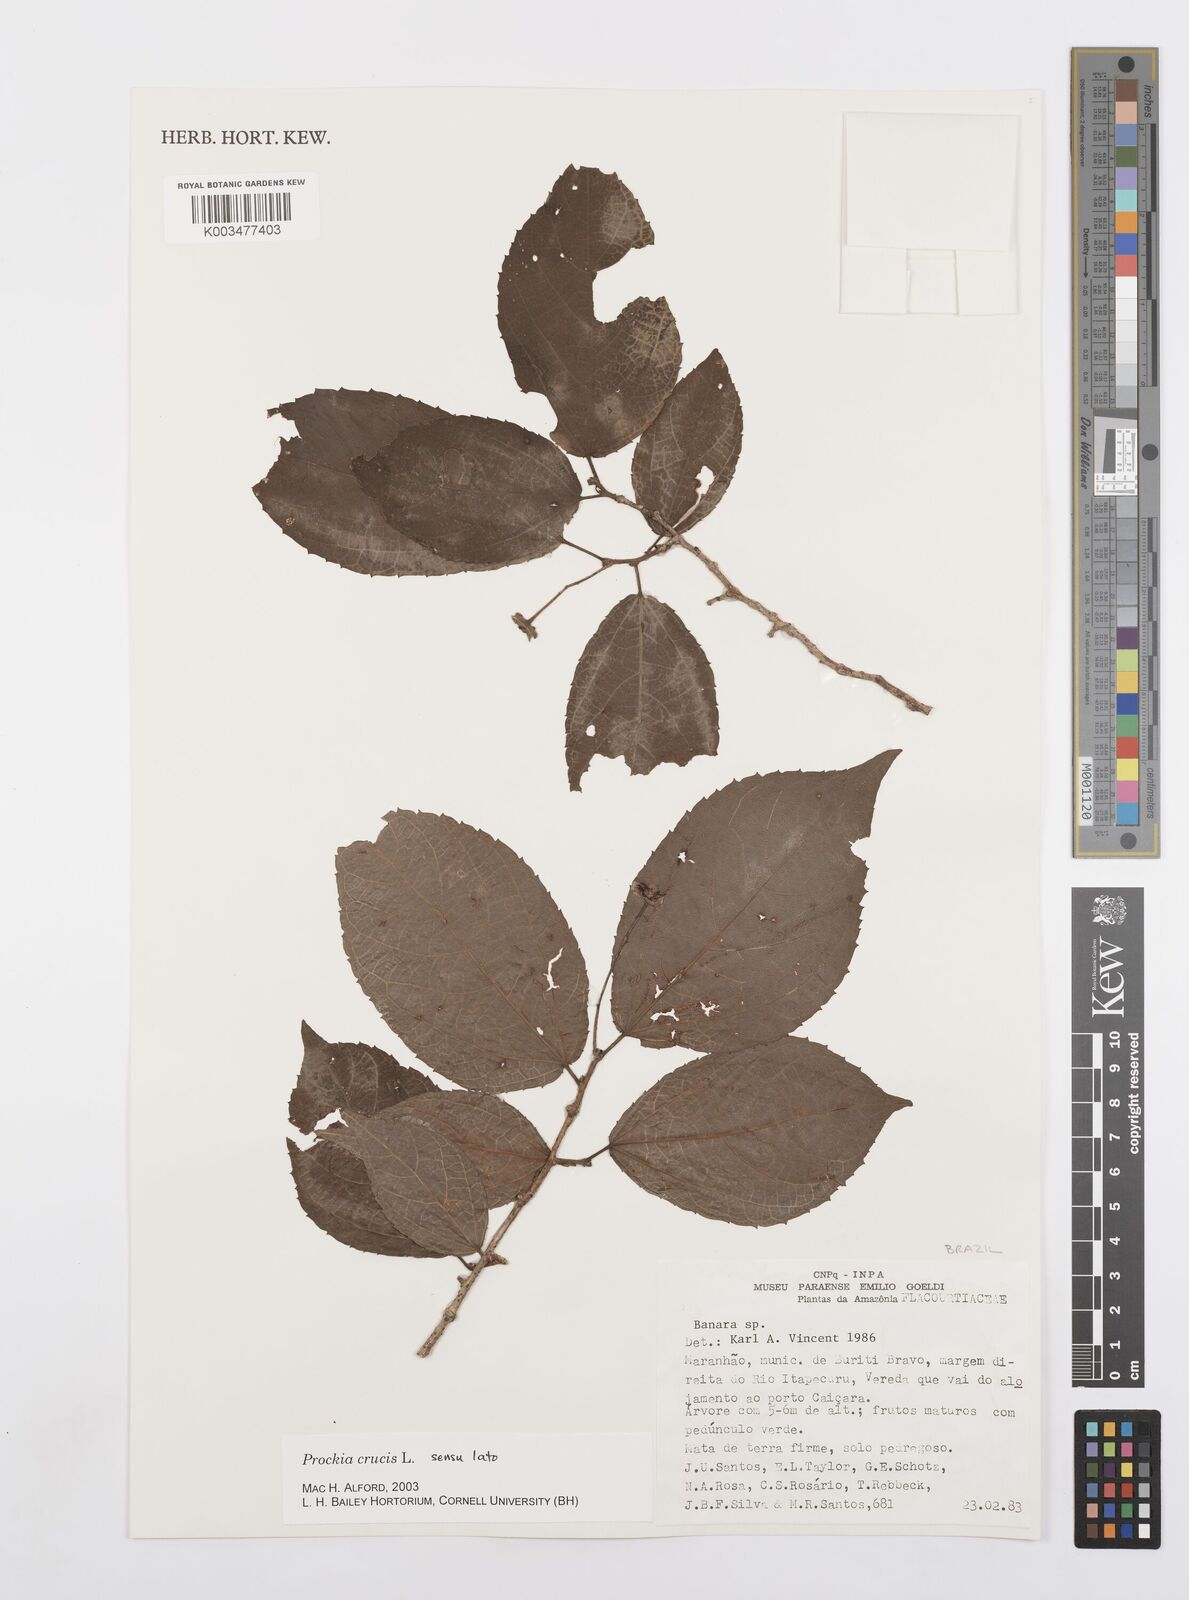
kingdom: Plantae
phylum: Tracheophyta
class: Magnoliopsida
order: Malpighiales
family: Salicaceae
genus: Prockia
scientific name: Prockia crucis
